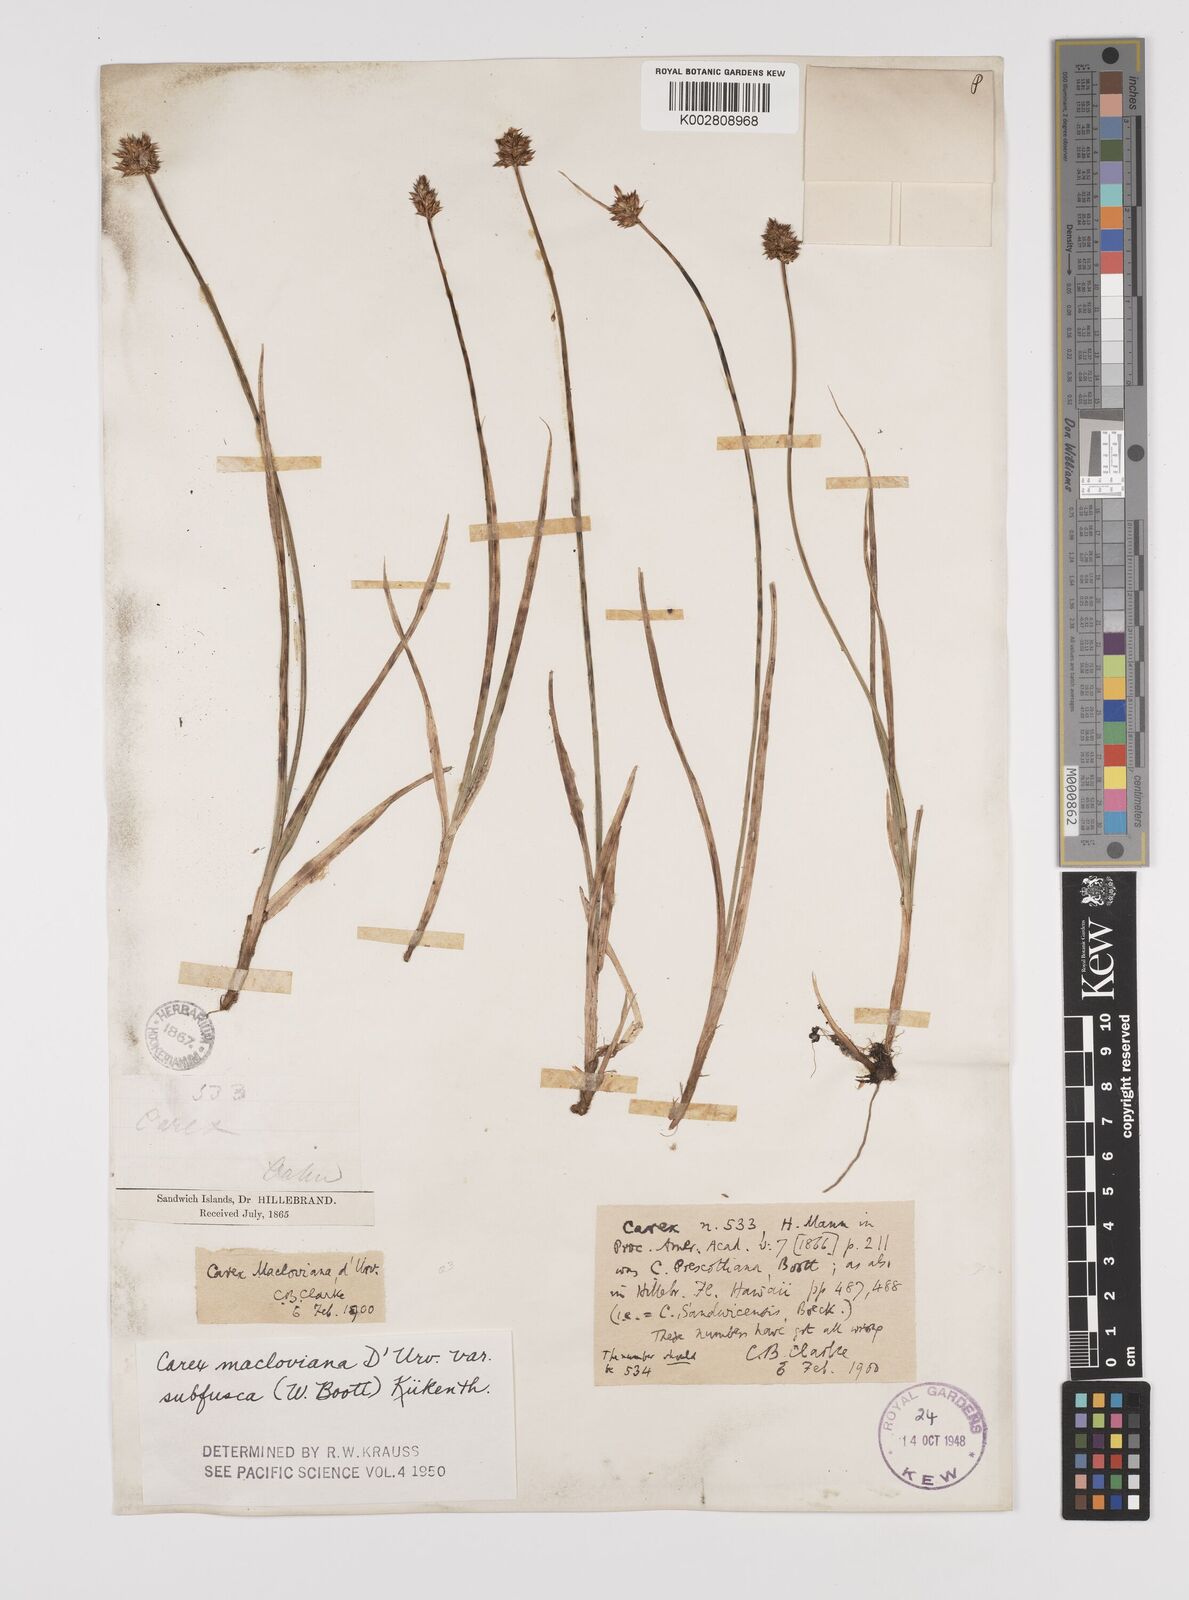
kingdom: Plantae
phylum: Tracheophyta
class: Liliopsida
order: Poales
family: Cyperaceae
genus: Carex
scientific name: Carex subfusca
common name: Brown sedge
